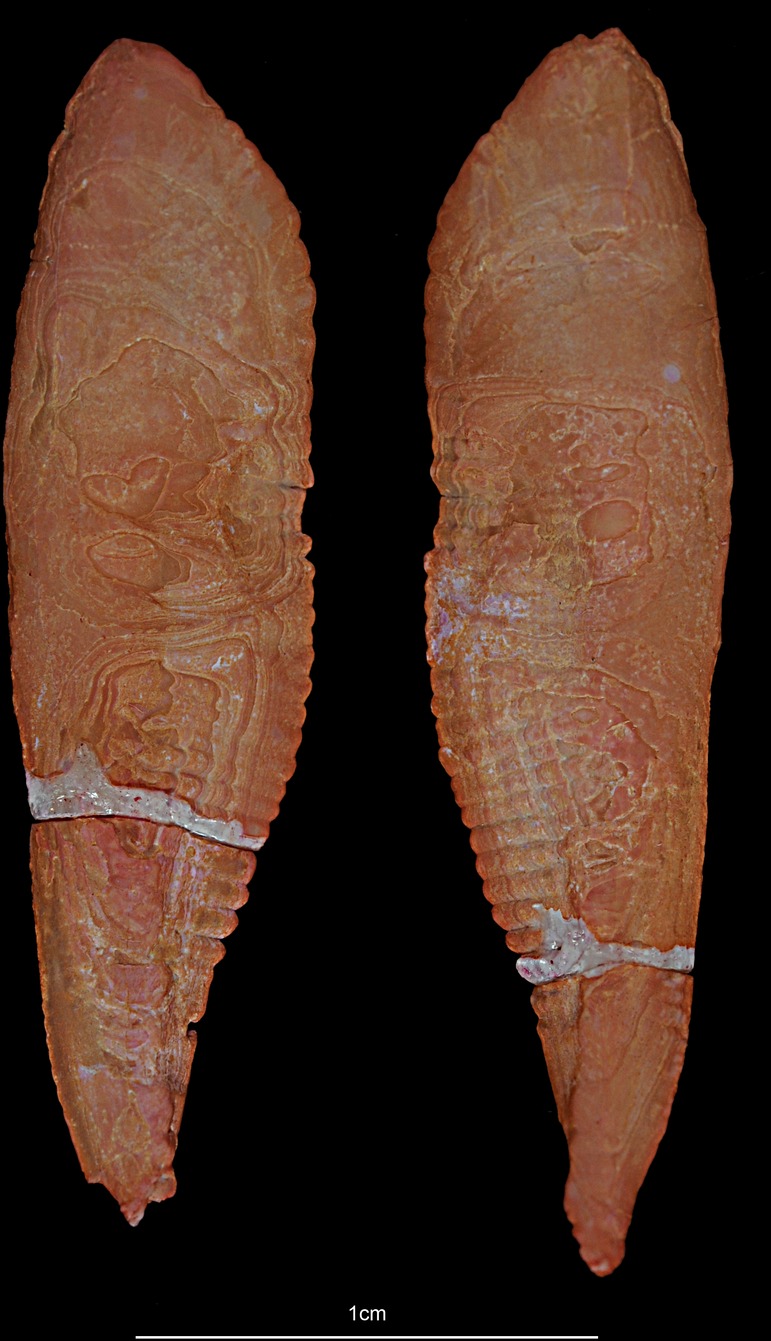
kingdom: Animalia
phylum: Chordata
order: Gadiformes
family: Gadidae
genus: Merlangius
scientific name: Merlangius merlangus
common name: Whiting
